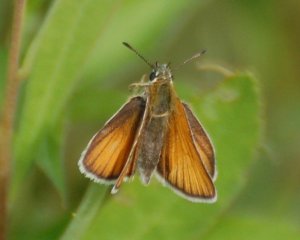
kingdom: Animalia
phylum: Arthropoda
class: Insecta
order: Lepidoptera
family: Hesperiidae
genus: Thymelicus
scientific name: Thymelicus lineola
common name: European Skipper
